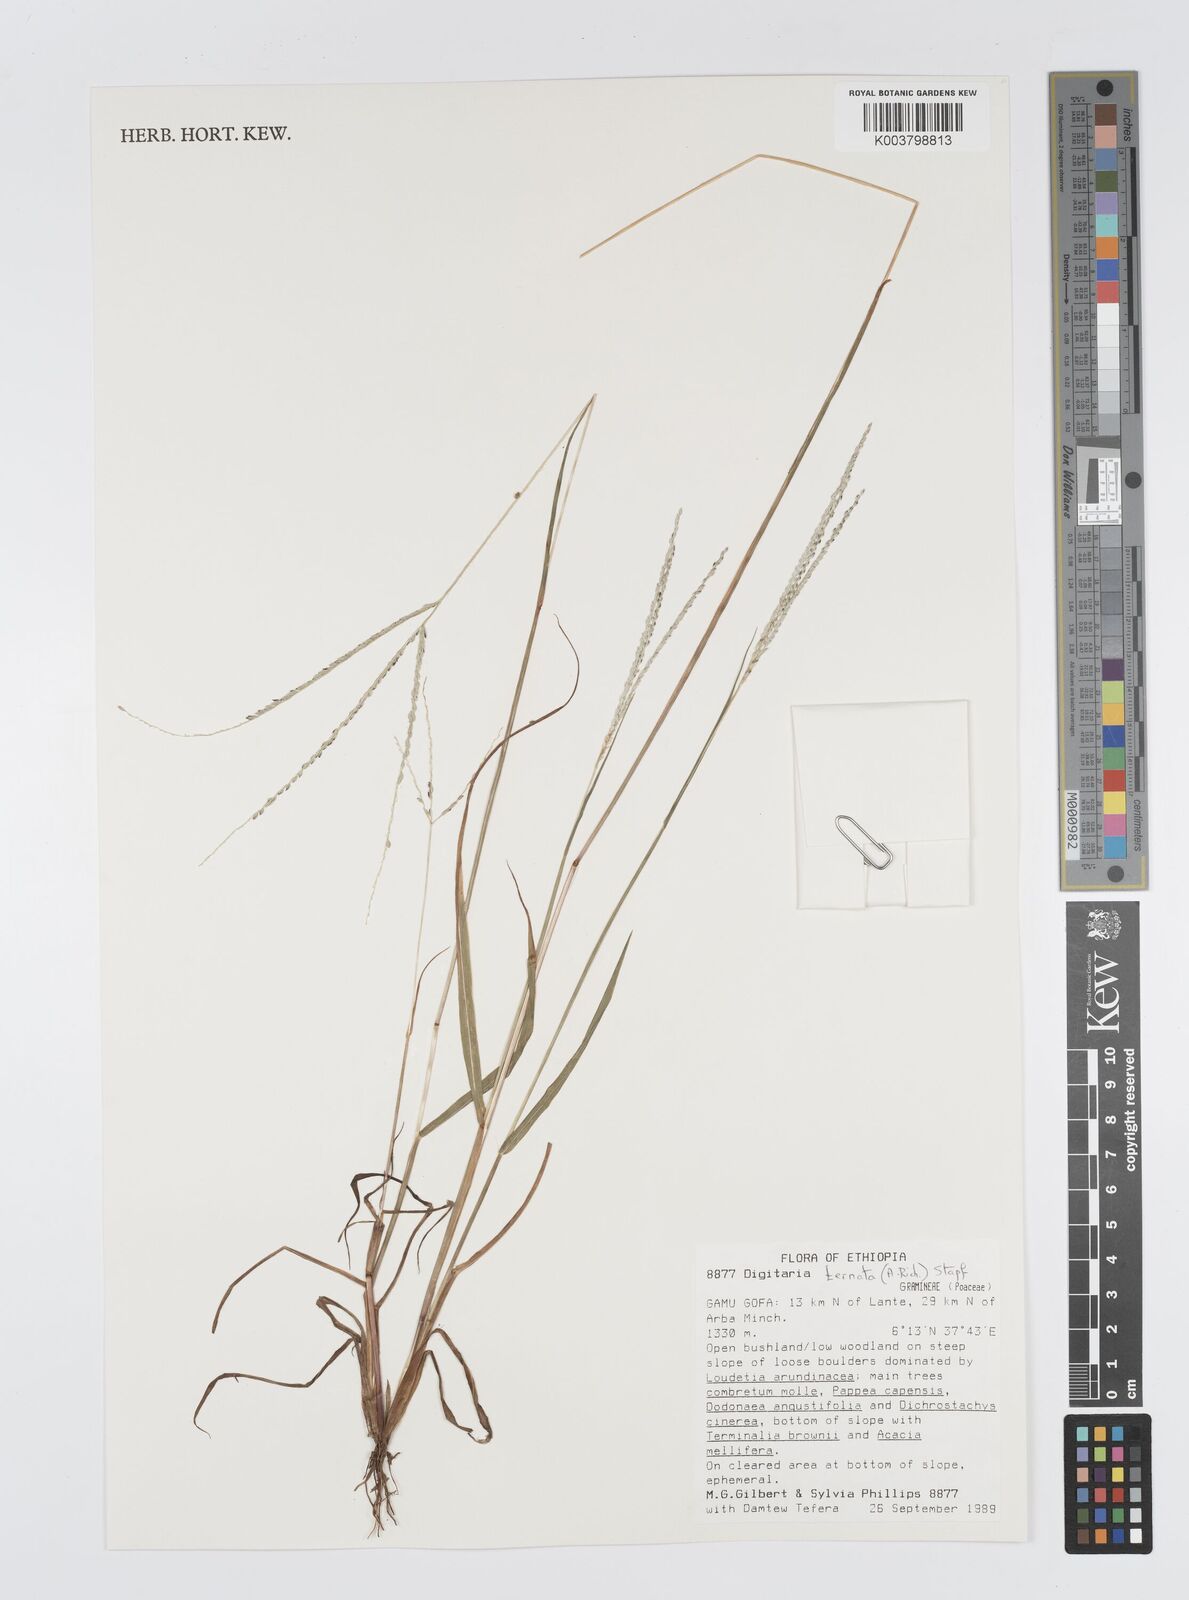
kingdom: Plantae
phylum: Tracheophyta
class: Liliopsida
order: Poales
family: Poaceae
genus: Digitaria
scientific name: Digitaria ternata
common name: Blackseed crabgrass
